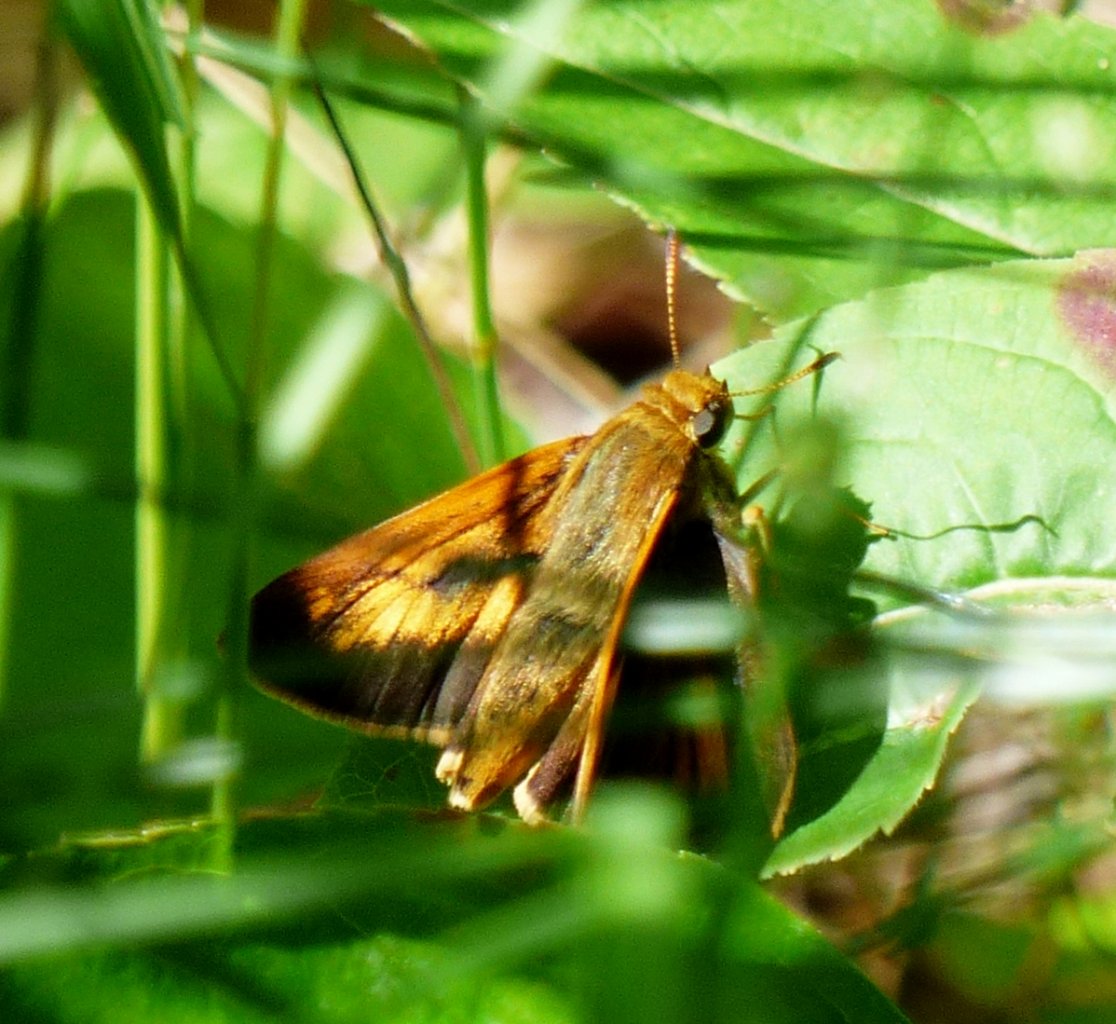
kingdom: Animalia
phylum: Arthropoda
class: Insecta
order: Lepidoptera
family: Hesperiidae
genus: Euphyes
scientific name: Euphyes dion
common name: Dion Skipper
